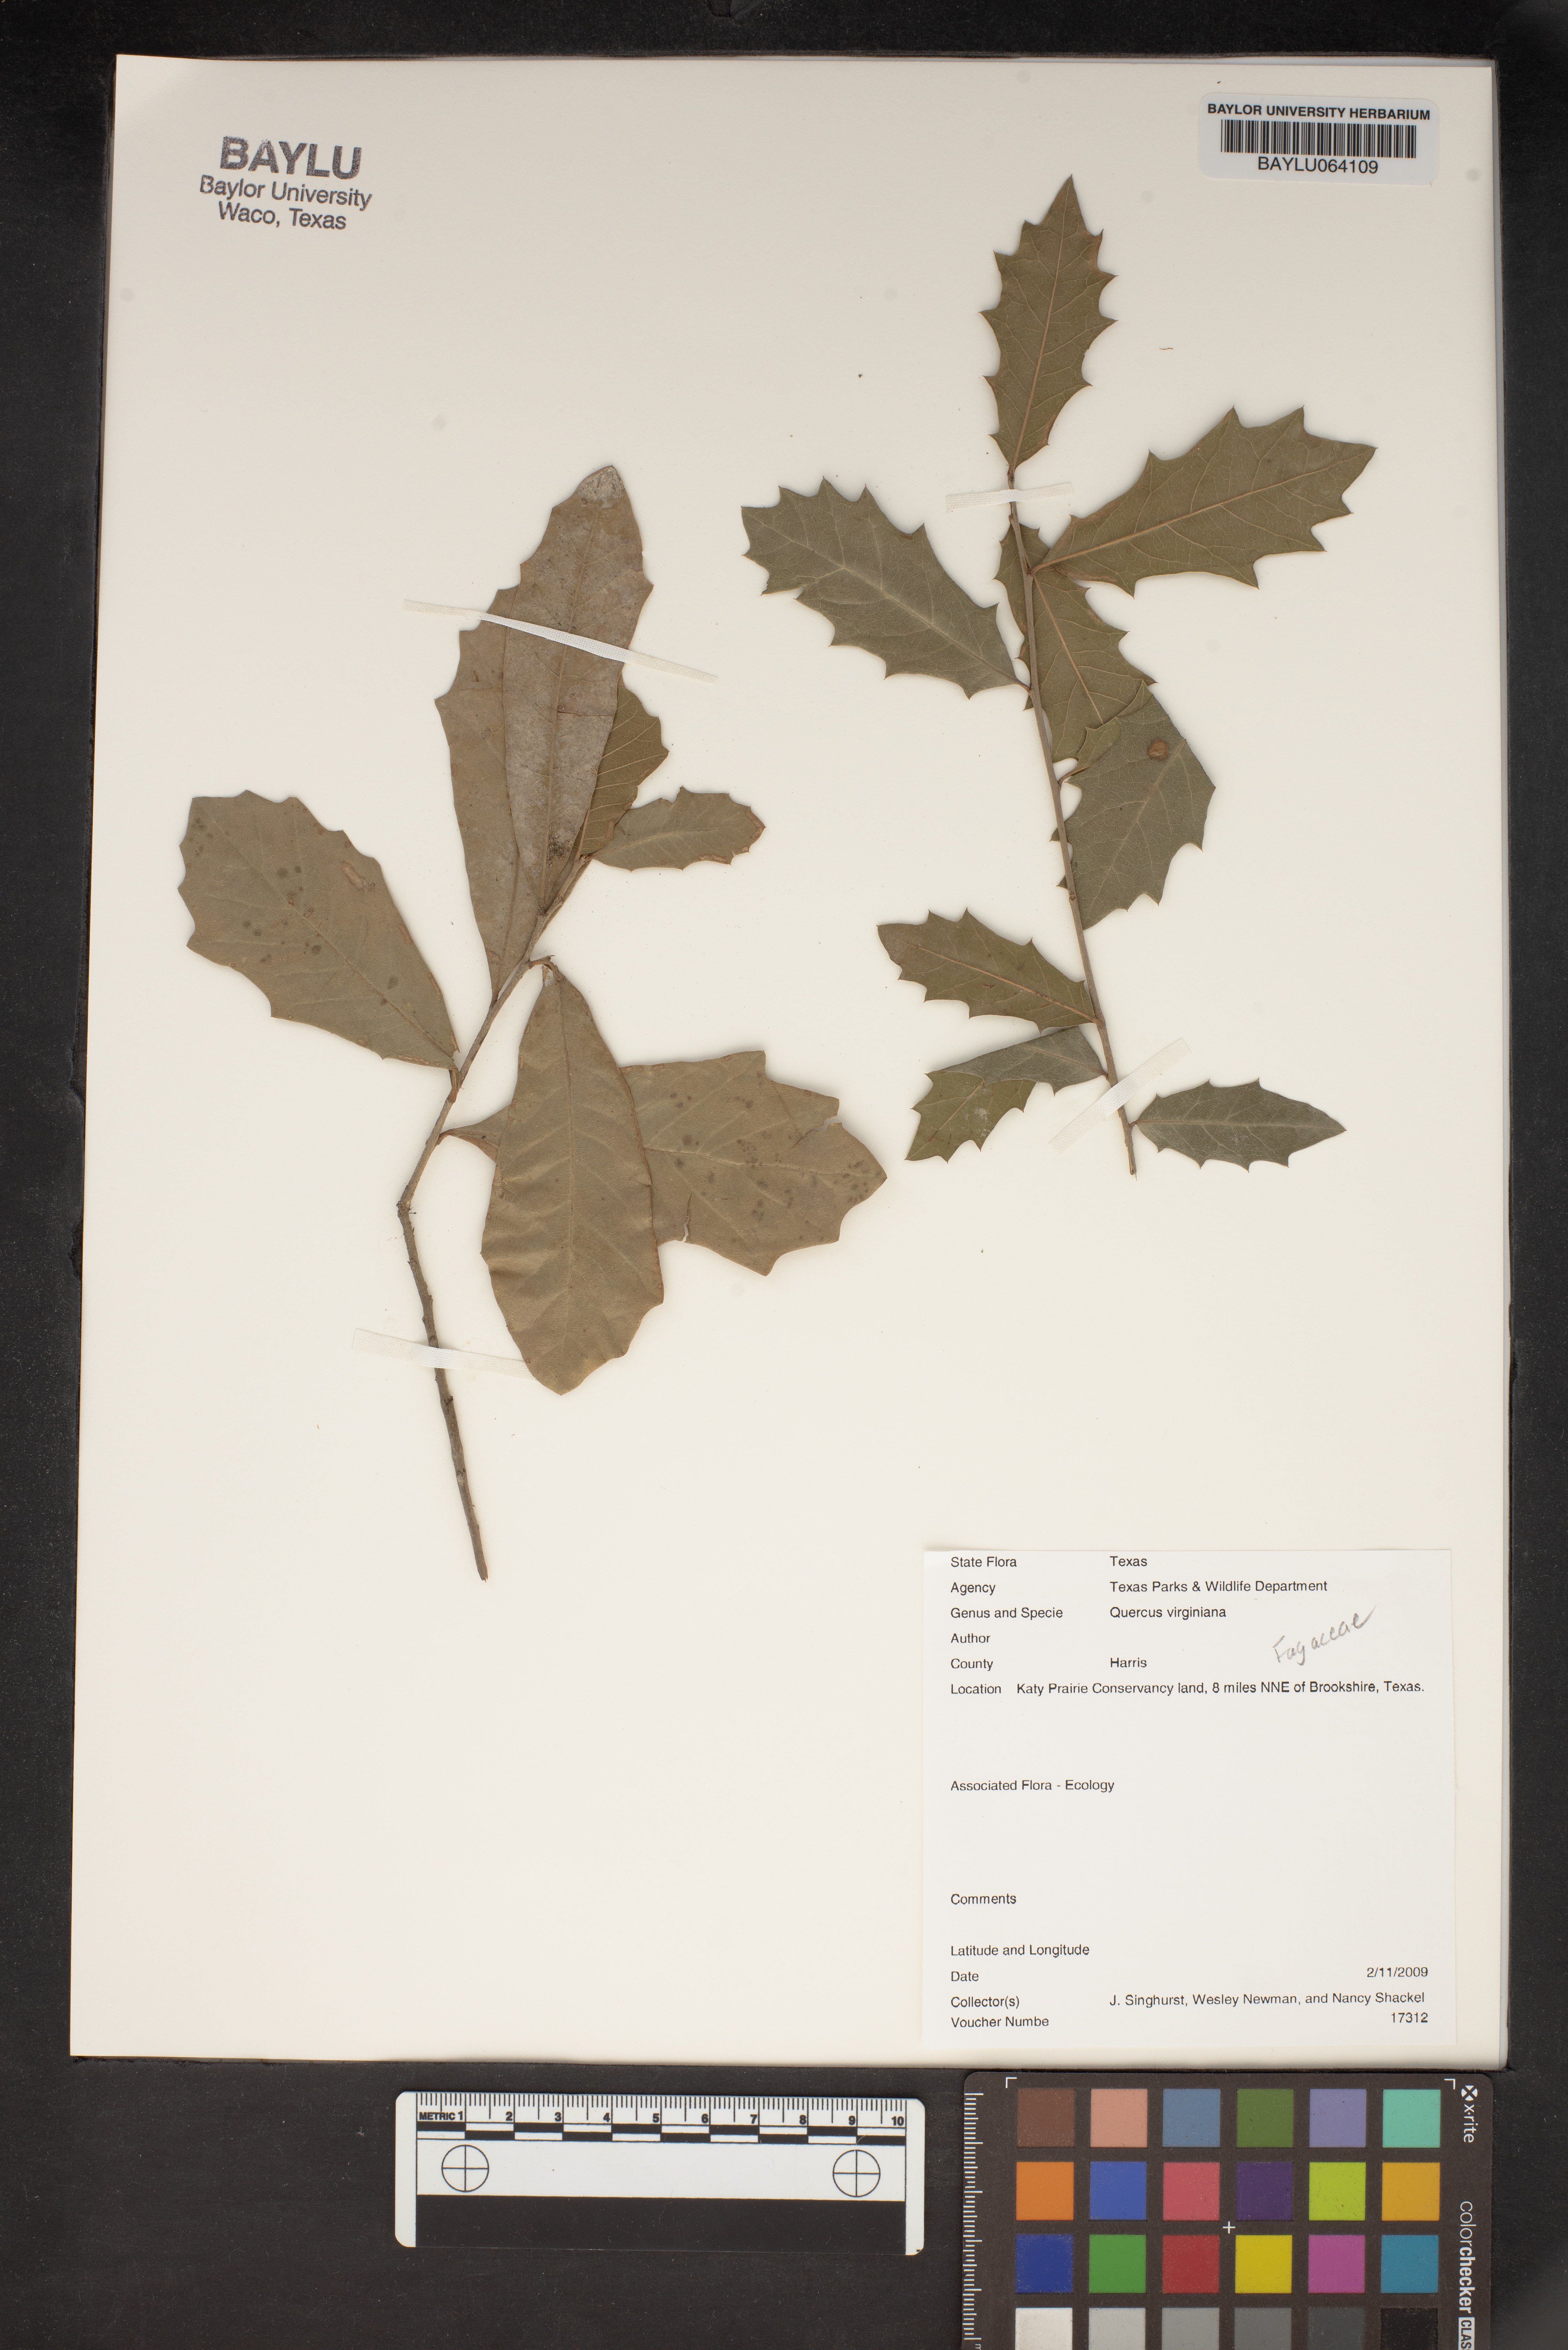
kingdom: Plantae
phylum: Tracheophyta
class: Magnoliopsida
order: Fagales
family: Fagaceae
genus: Quercus
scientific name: Quercus virginiana
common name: Southern live oak
